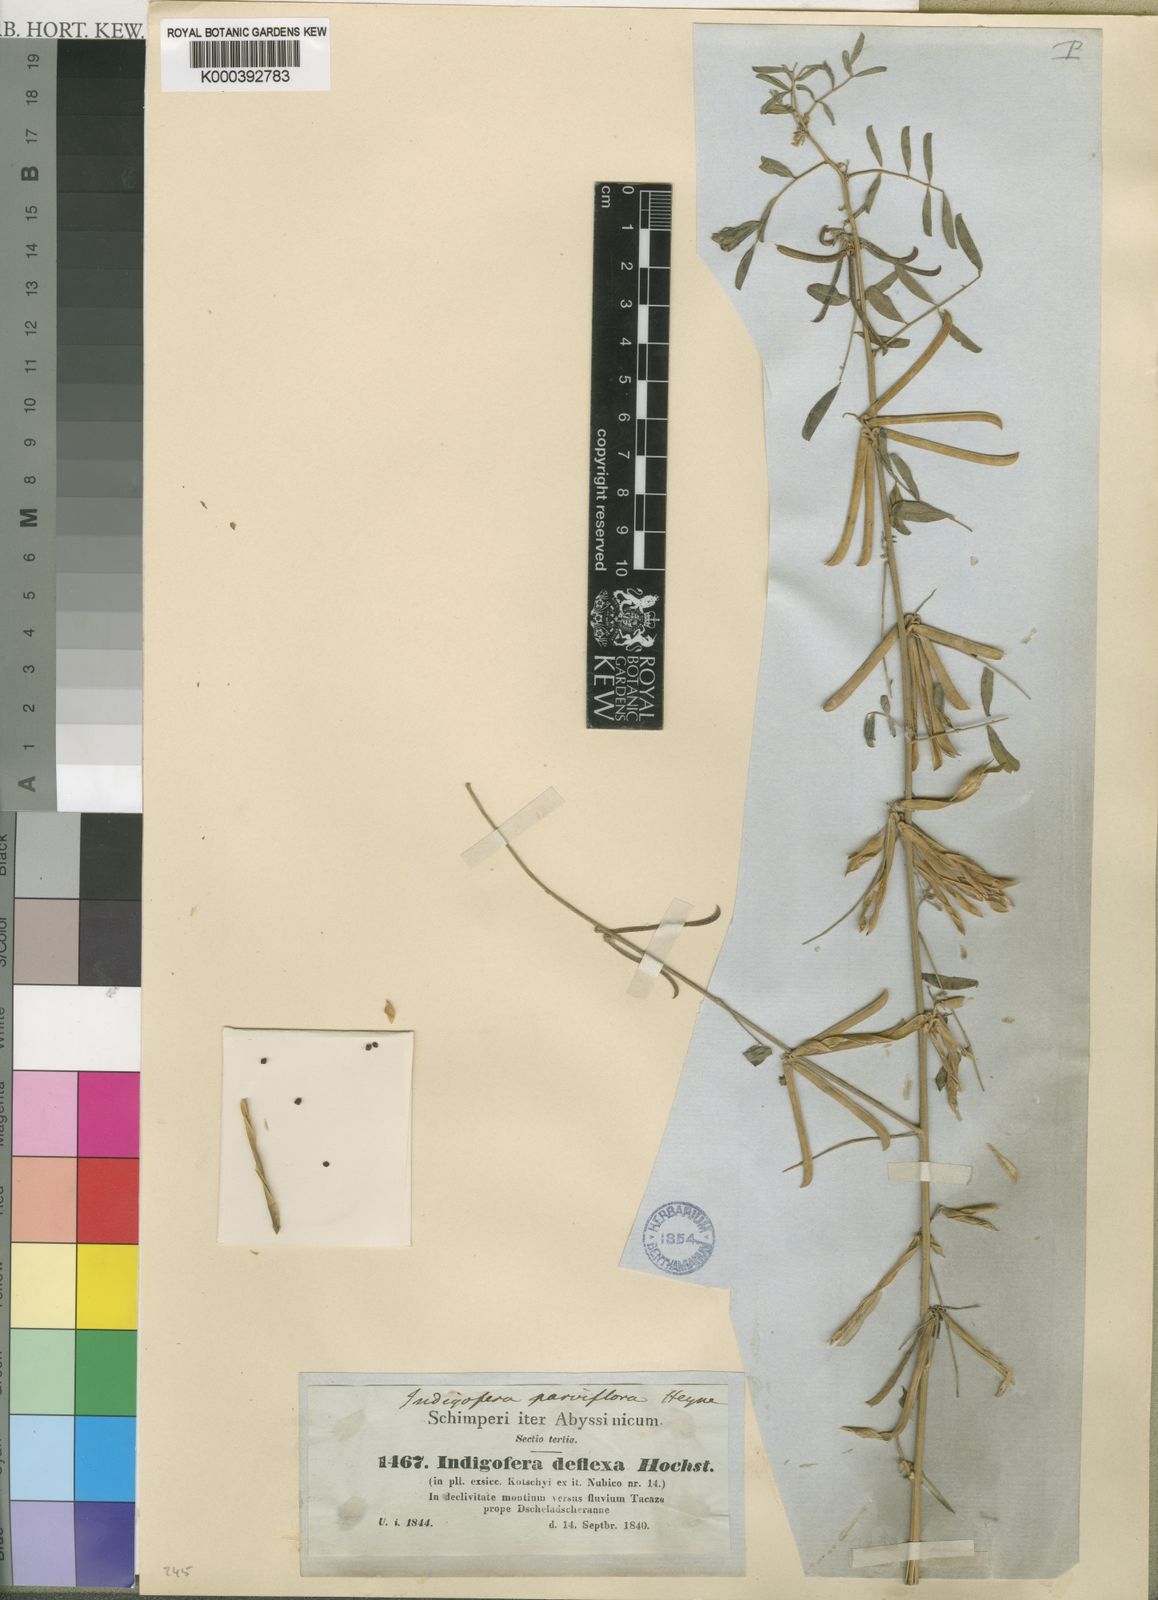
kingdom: Plantae
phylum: Tracheophyta
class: Magnoliopsida
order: Fabales
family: Fabaceae
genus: Indigofera
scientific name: Indigofera
